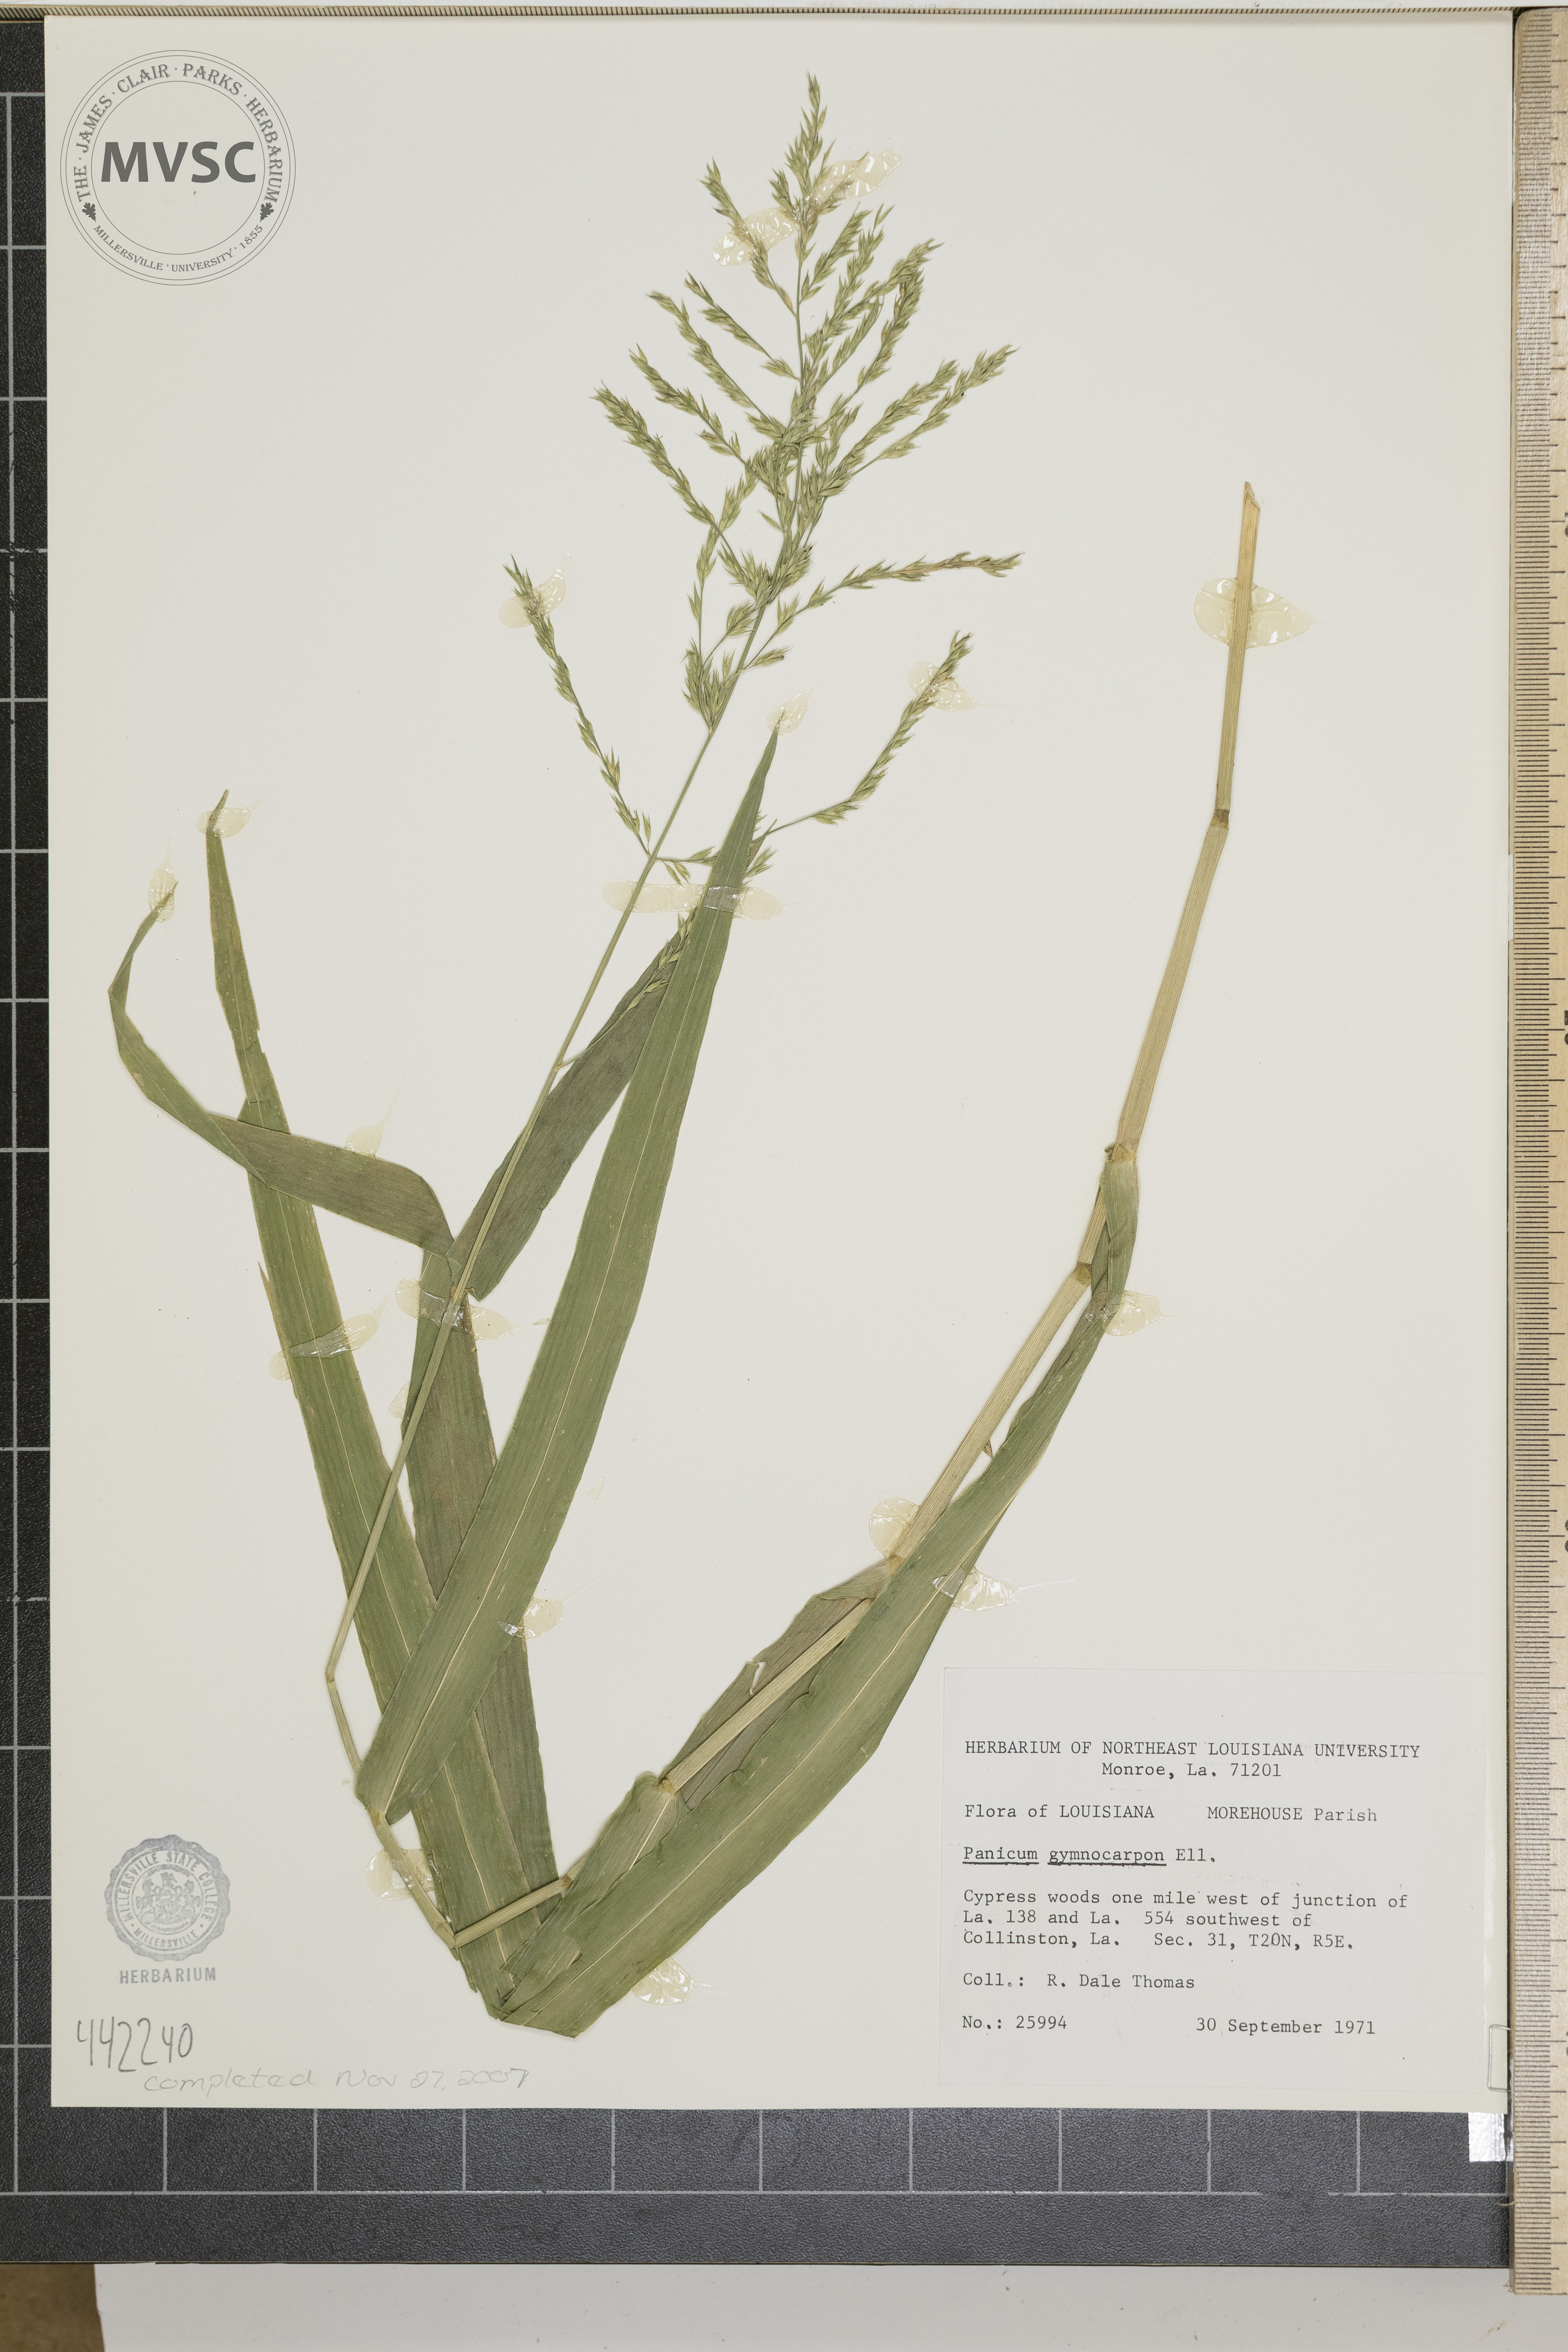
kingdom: Plantae
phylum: Tracheophyta
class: Liliopsida
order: Poales
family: Poaceae
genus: Panicum
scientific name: Panicum gymnocarpon
